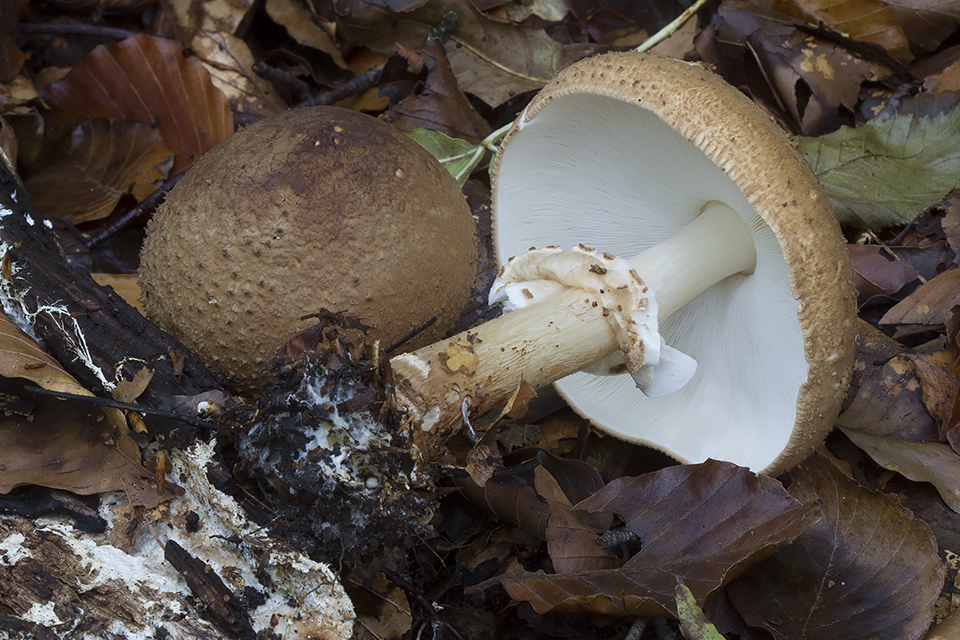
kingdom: Fungi
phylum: Basidiomycota
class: Agaricomycetes
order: Agaricales
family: Agaricaceae
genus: Echinoderma
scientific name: Echinoderma asperum
